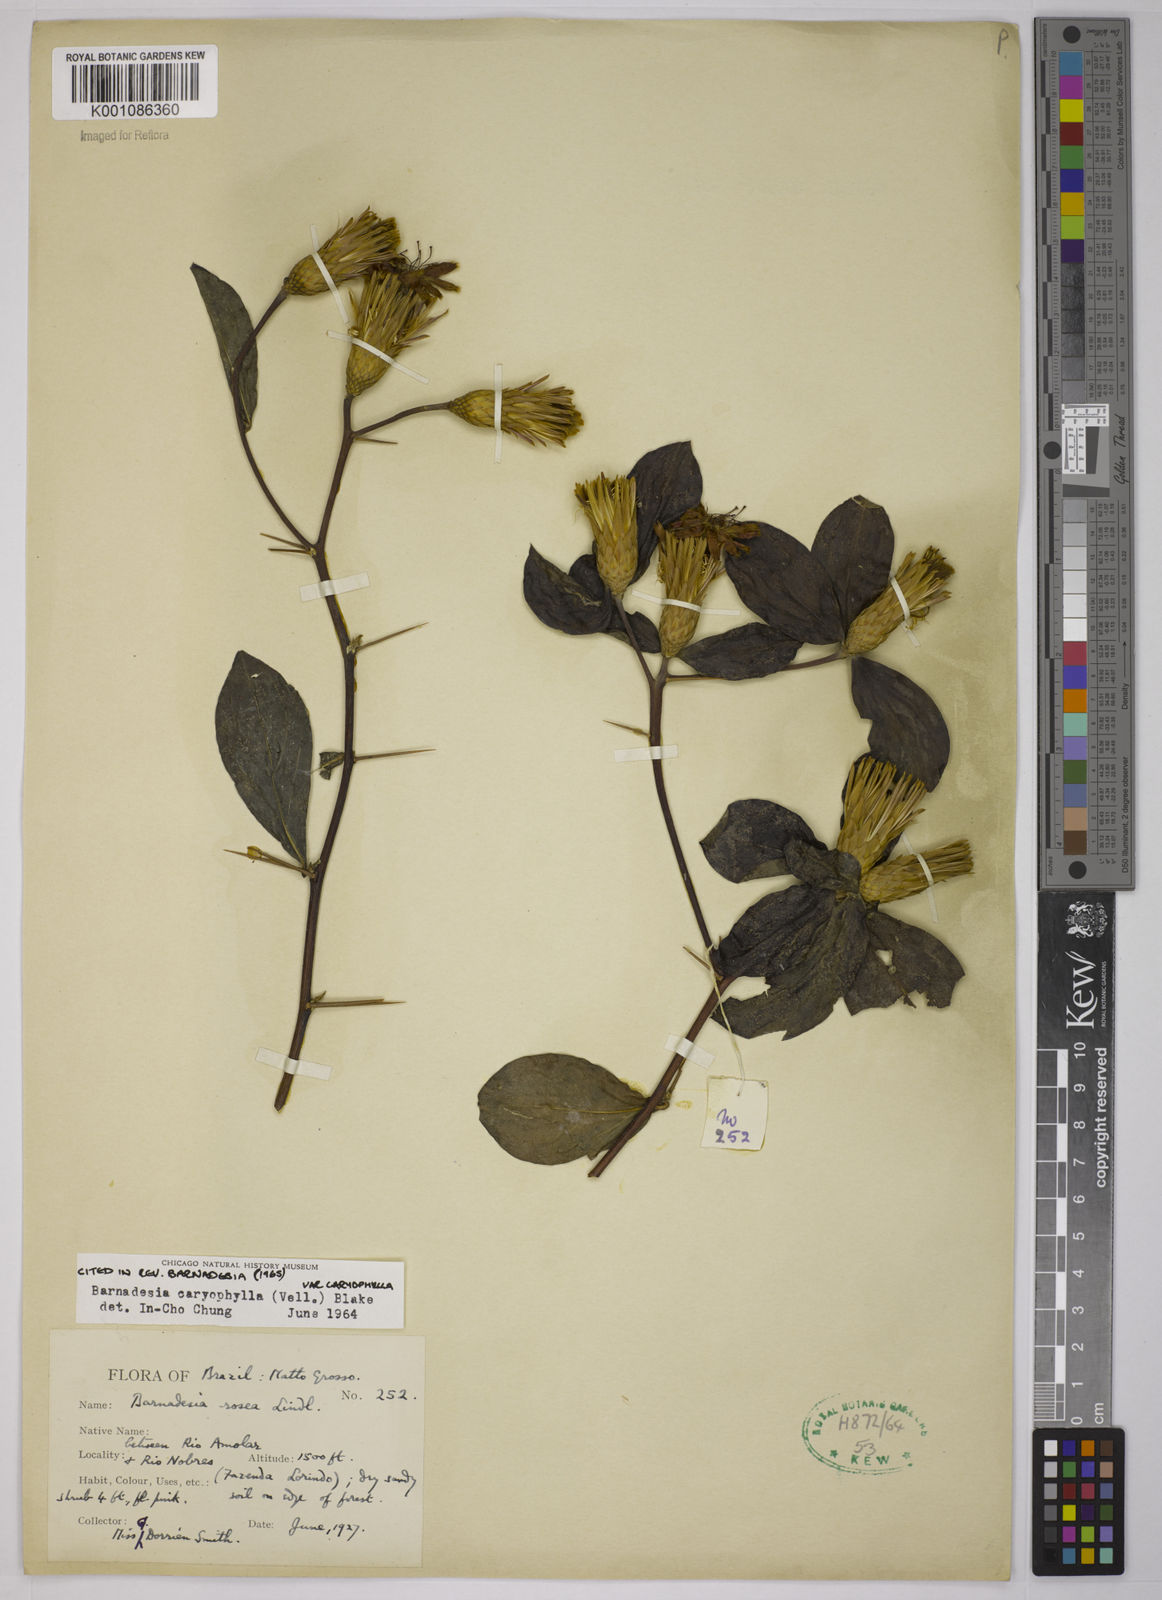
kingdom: Plantae
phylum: Tracheophyta
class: Magnoliopsida
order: Asterales
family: Asteraceae
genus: Barnadesia
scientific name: Barnadesia caryophylla
